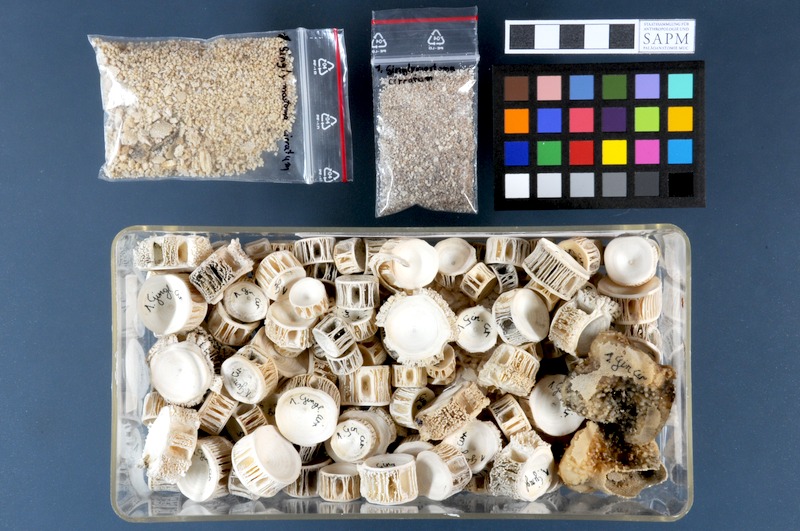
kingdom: Animalia
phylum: Chordata
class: Elasmobranchii
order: Orectolobiformes
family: Ginglymostomatidae
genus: Ginglymostoma
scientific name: Ginglymostoma cirratum
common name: Nurse shark
